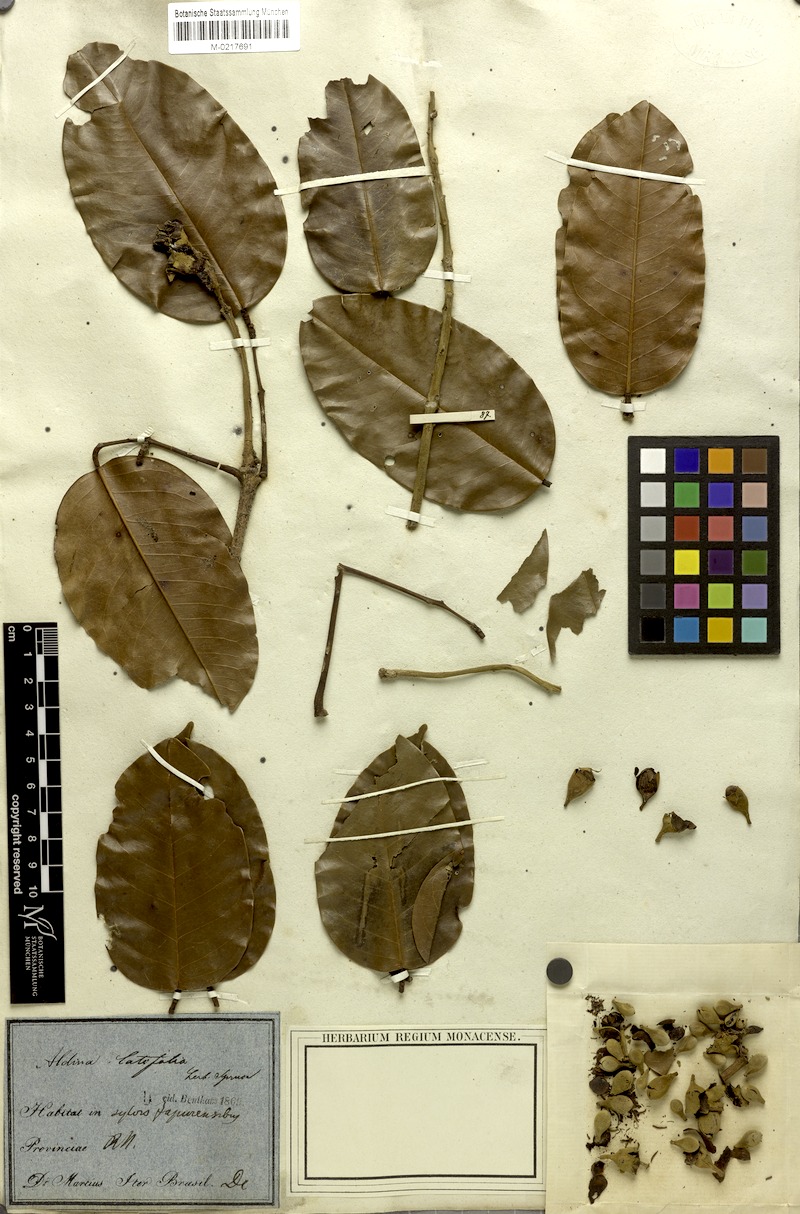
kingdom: Plantae
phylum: Tracheophyta
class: Magnoliopsida
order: Fabales
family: Fabaceae
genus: Aldina
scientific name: Aldina latifolia
